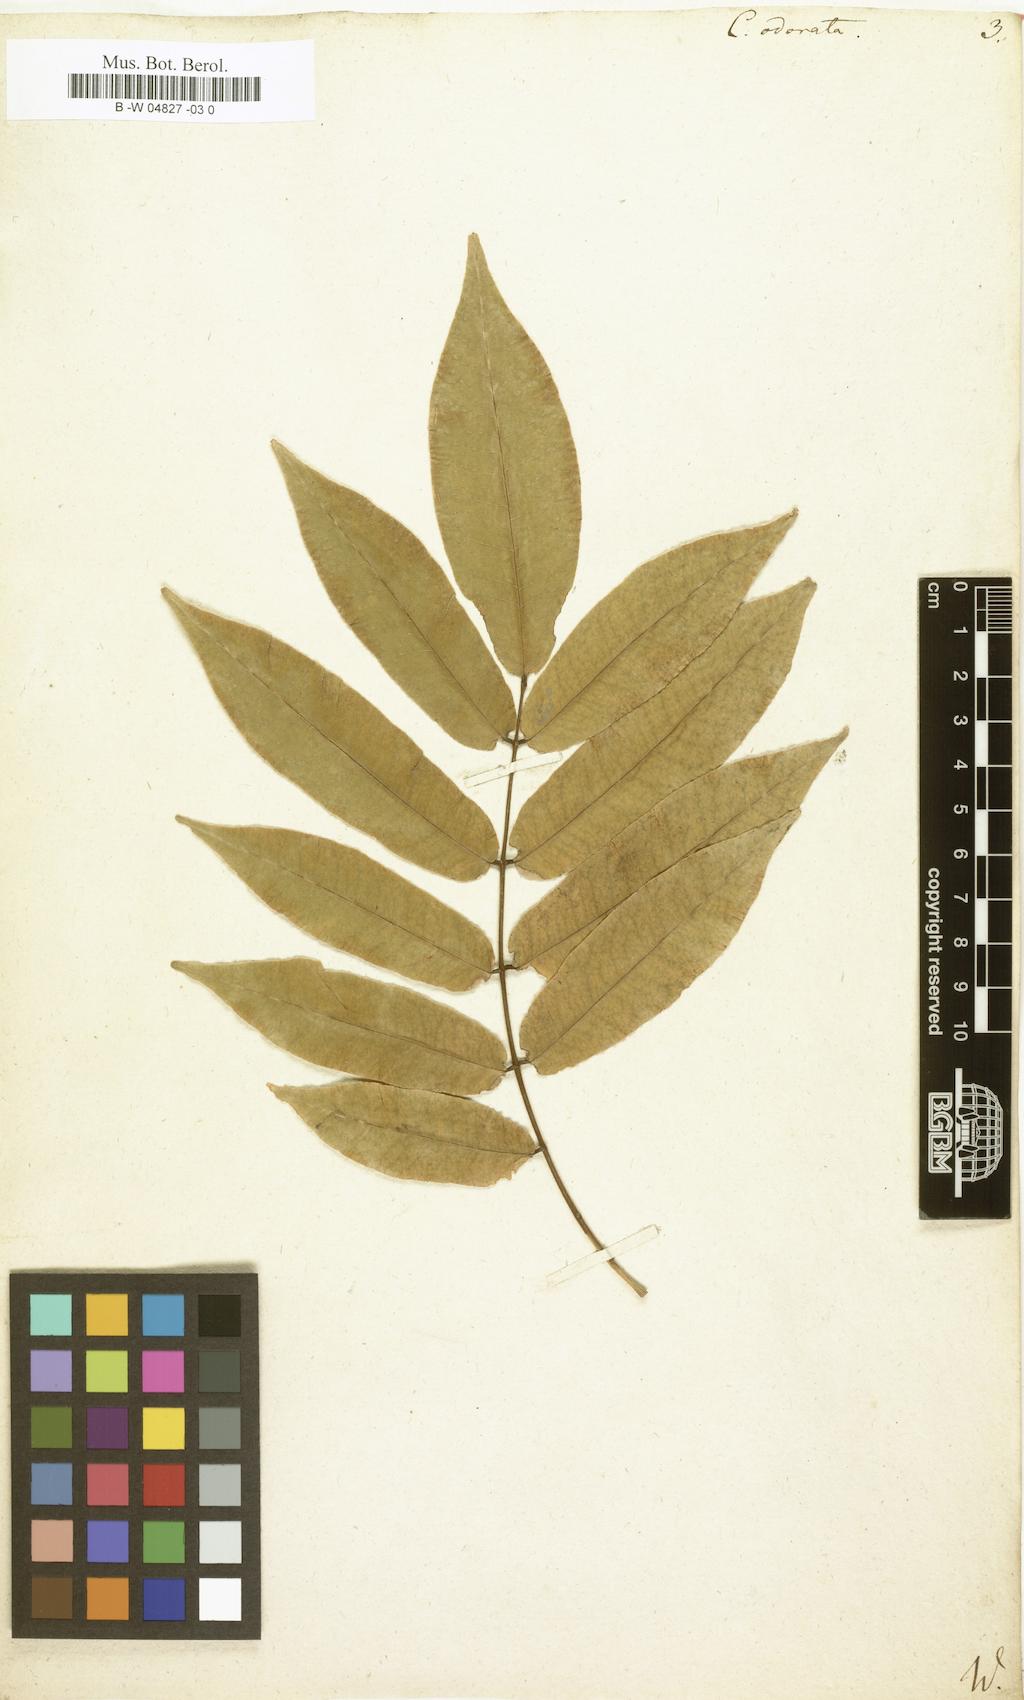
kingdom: Plantae
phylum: Tracheophyta
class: Magnoliopsida
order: Sapindales
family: Meliaceae
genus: Cedrela
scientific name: Cedrela odorata
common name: Red cedar
